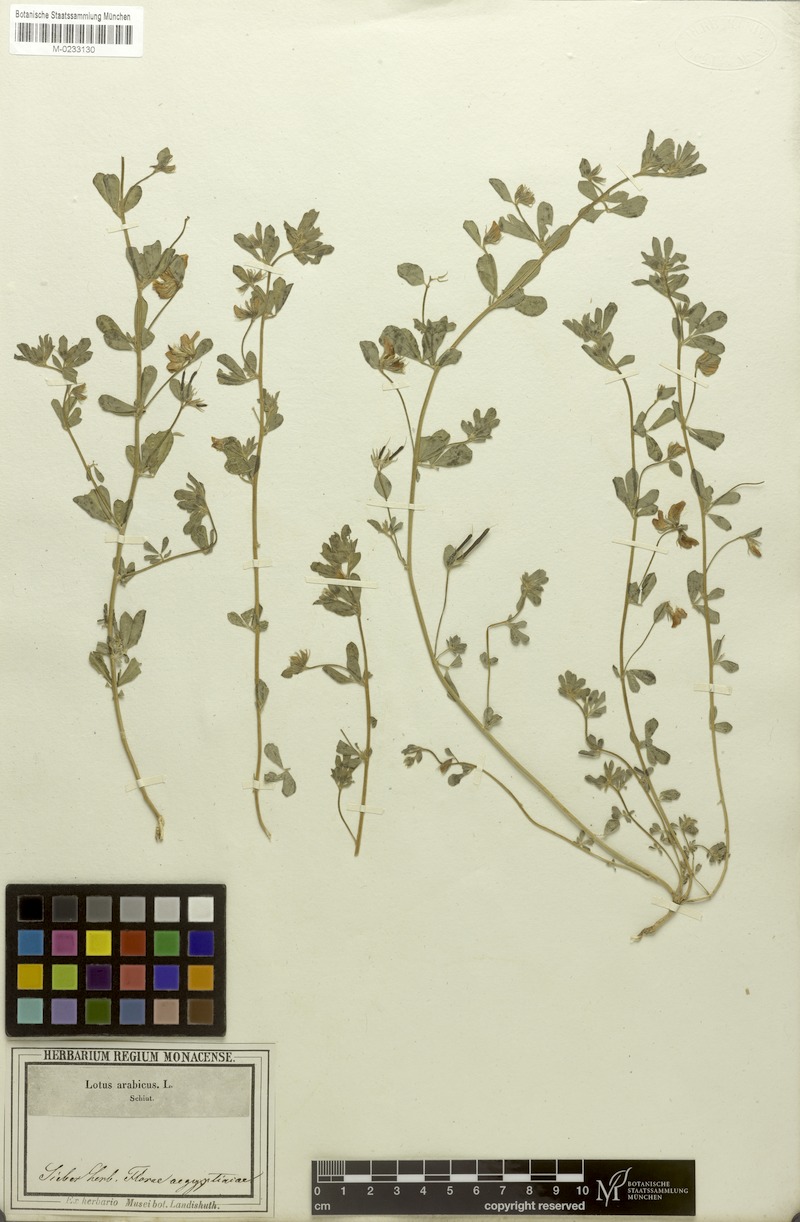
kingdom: Plantae
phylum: Tracheophyta
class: Magnoliopsida
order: Fabales
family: Fabaceae
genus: Lotus
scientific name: Lotus arabicus
